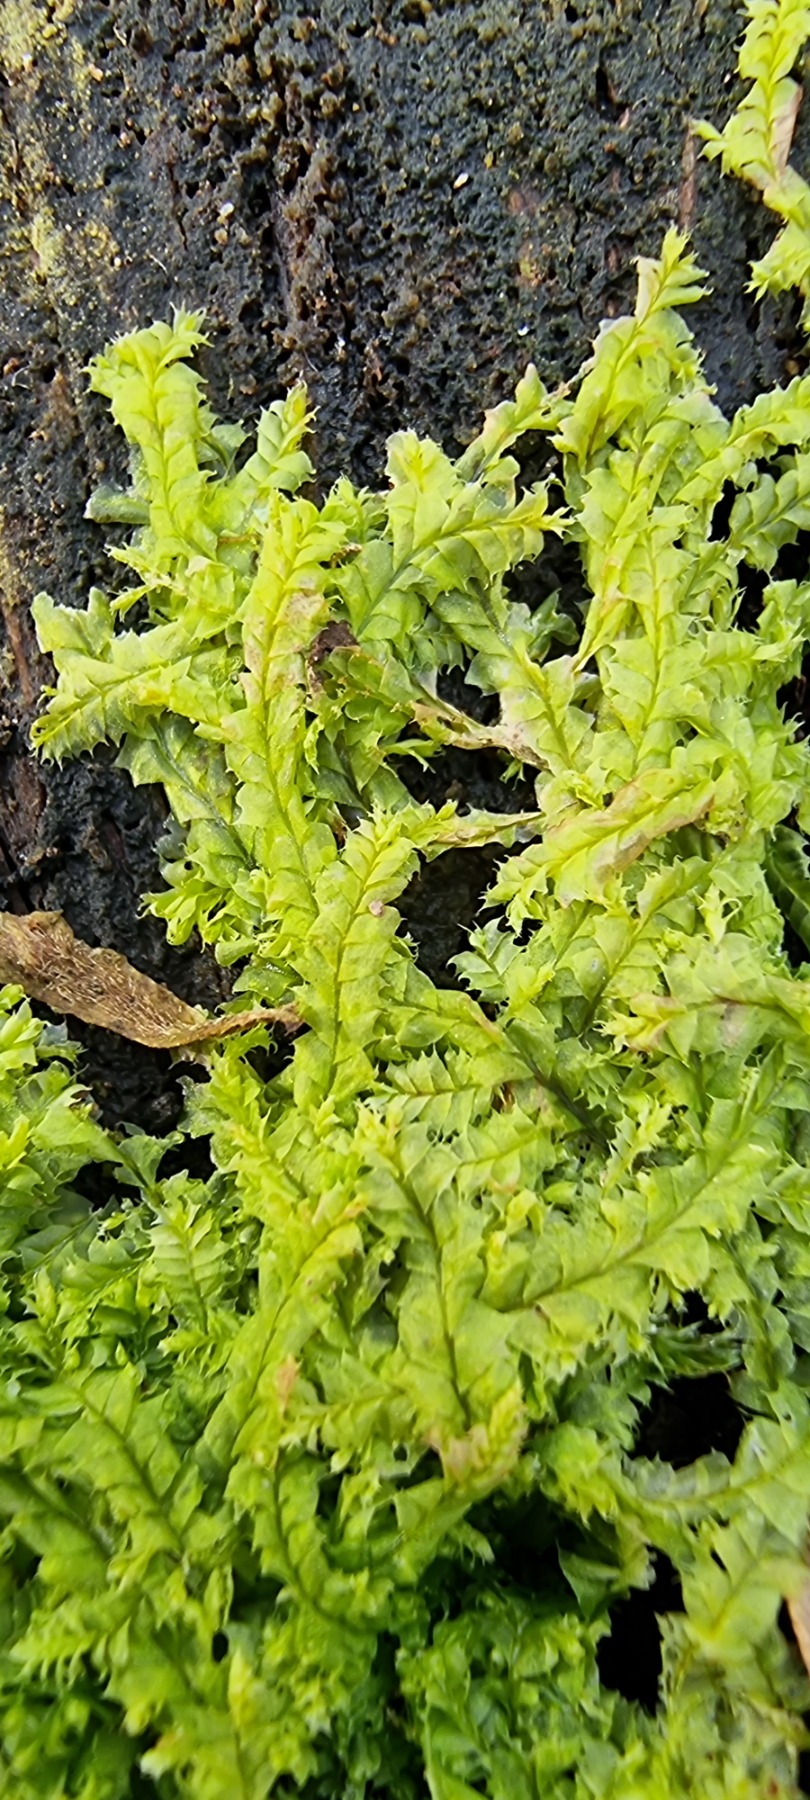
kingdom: Plantae
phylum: Marchantiophyta
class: Jungermanniopsida
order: Jungermanniales
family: Lophocoleaceae
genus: Lophocolea
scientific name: Lophocolea bidentata
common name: Sylspidset kamsvøb
